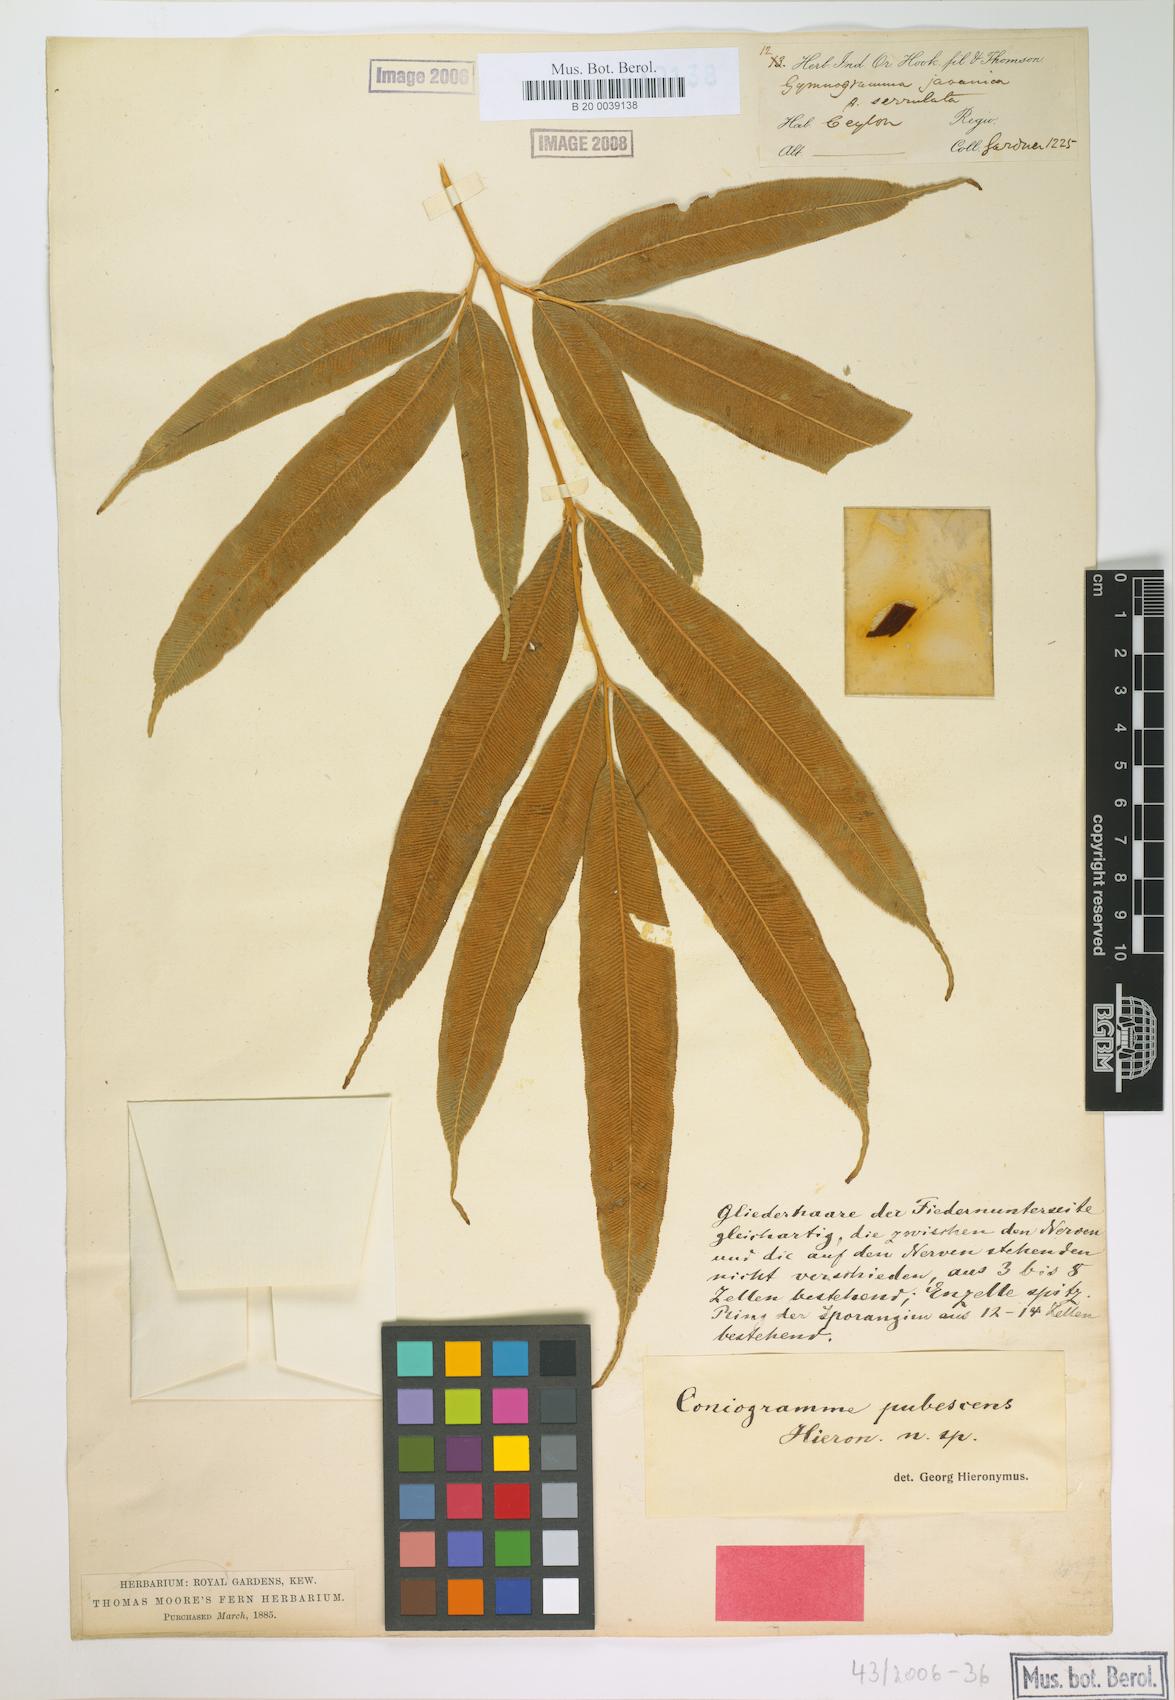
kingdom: Plantae
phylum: Tracheophyta
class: Polypodiopsida
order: Polypodiales
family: Pteridaceae
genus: Coniogramme
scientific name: Coniogramme pubescens
